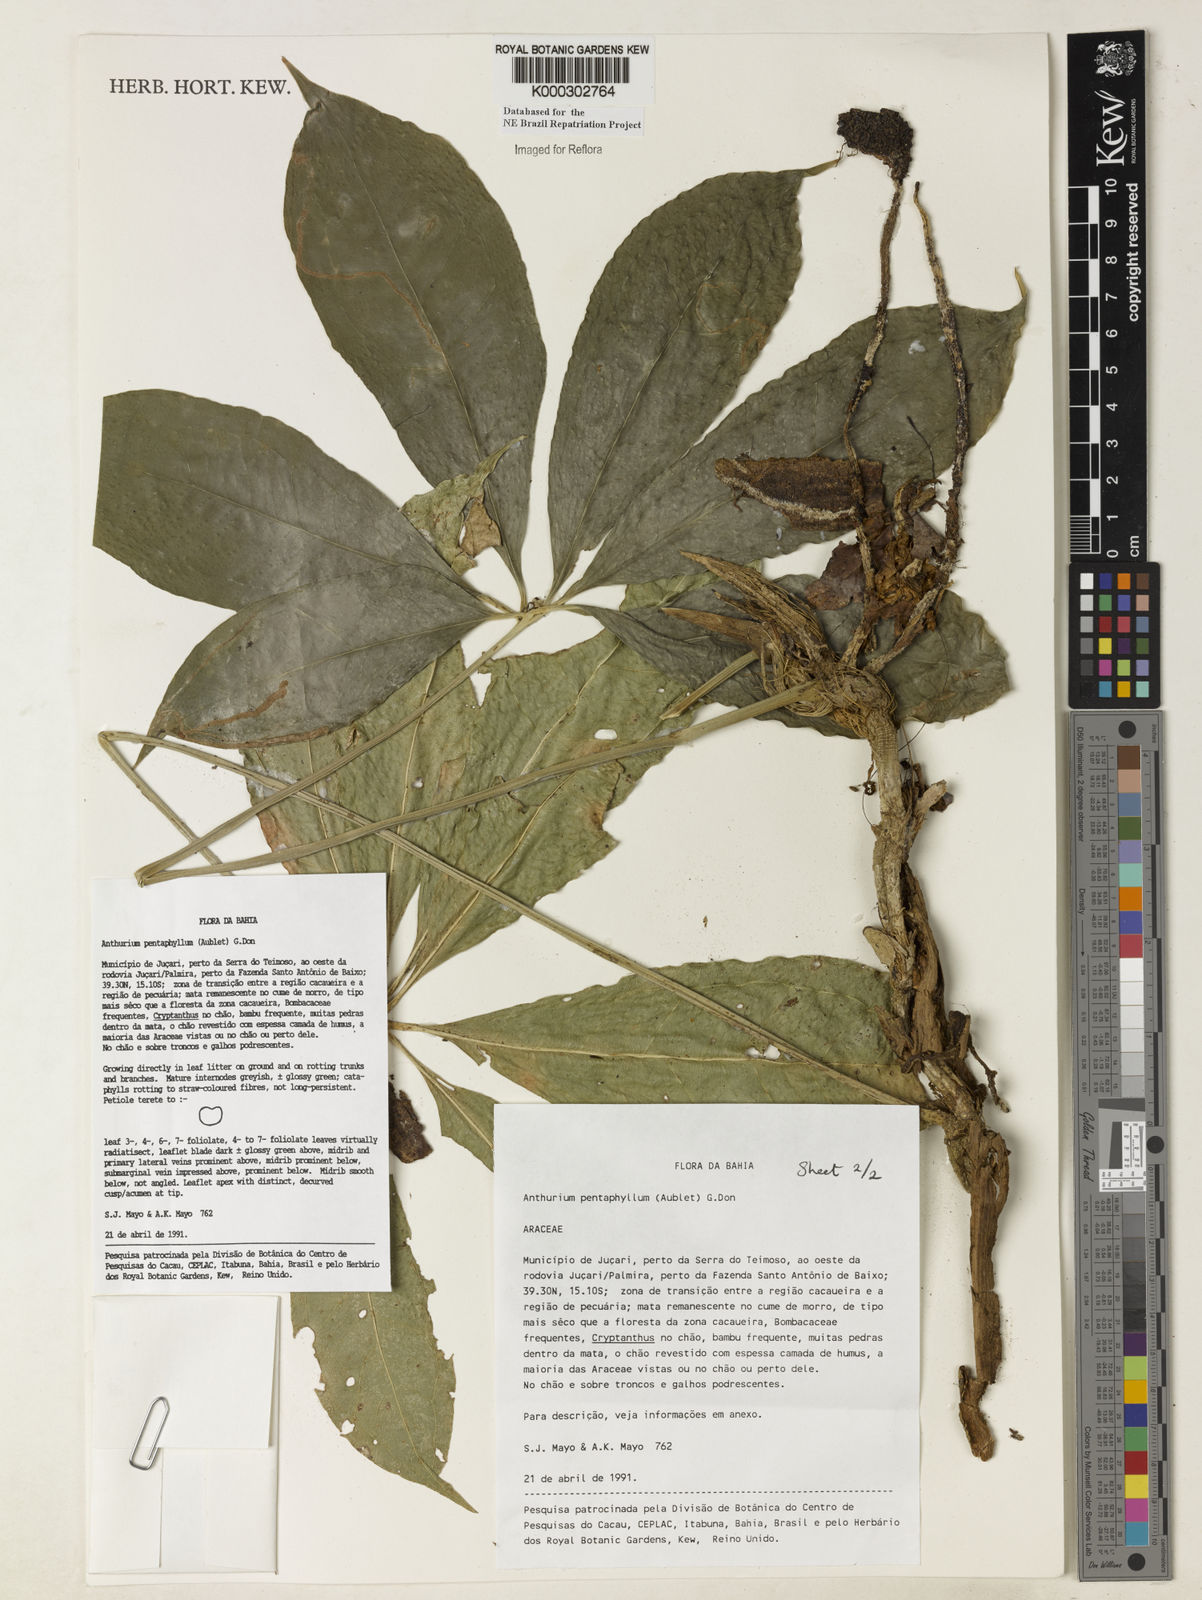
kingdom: Plantae
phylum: Tracheophyta
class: Liliopsida
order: Alismatales
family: Araceae
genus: Anthurium
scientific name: Anthurium pentaphyllum
